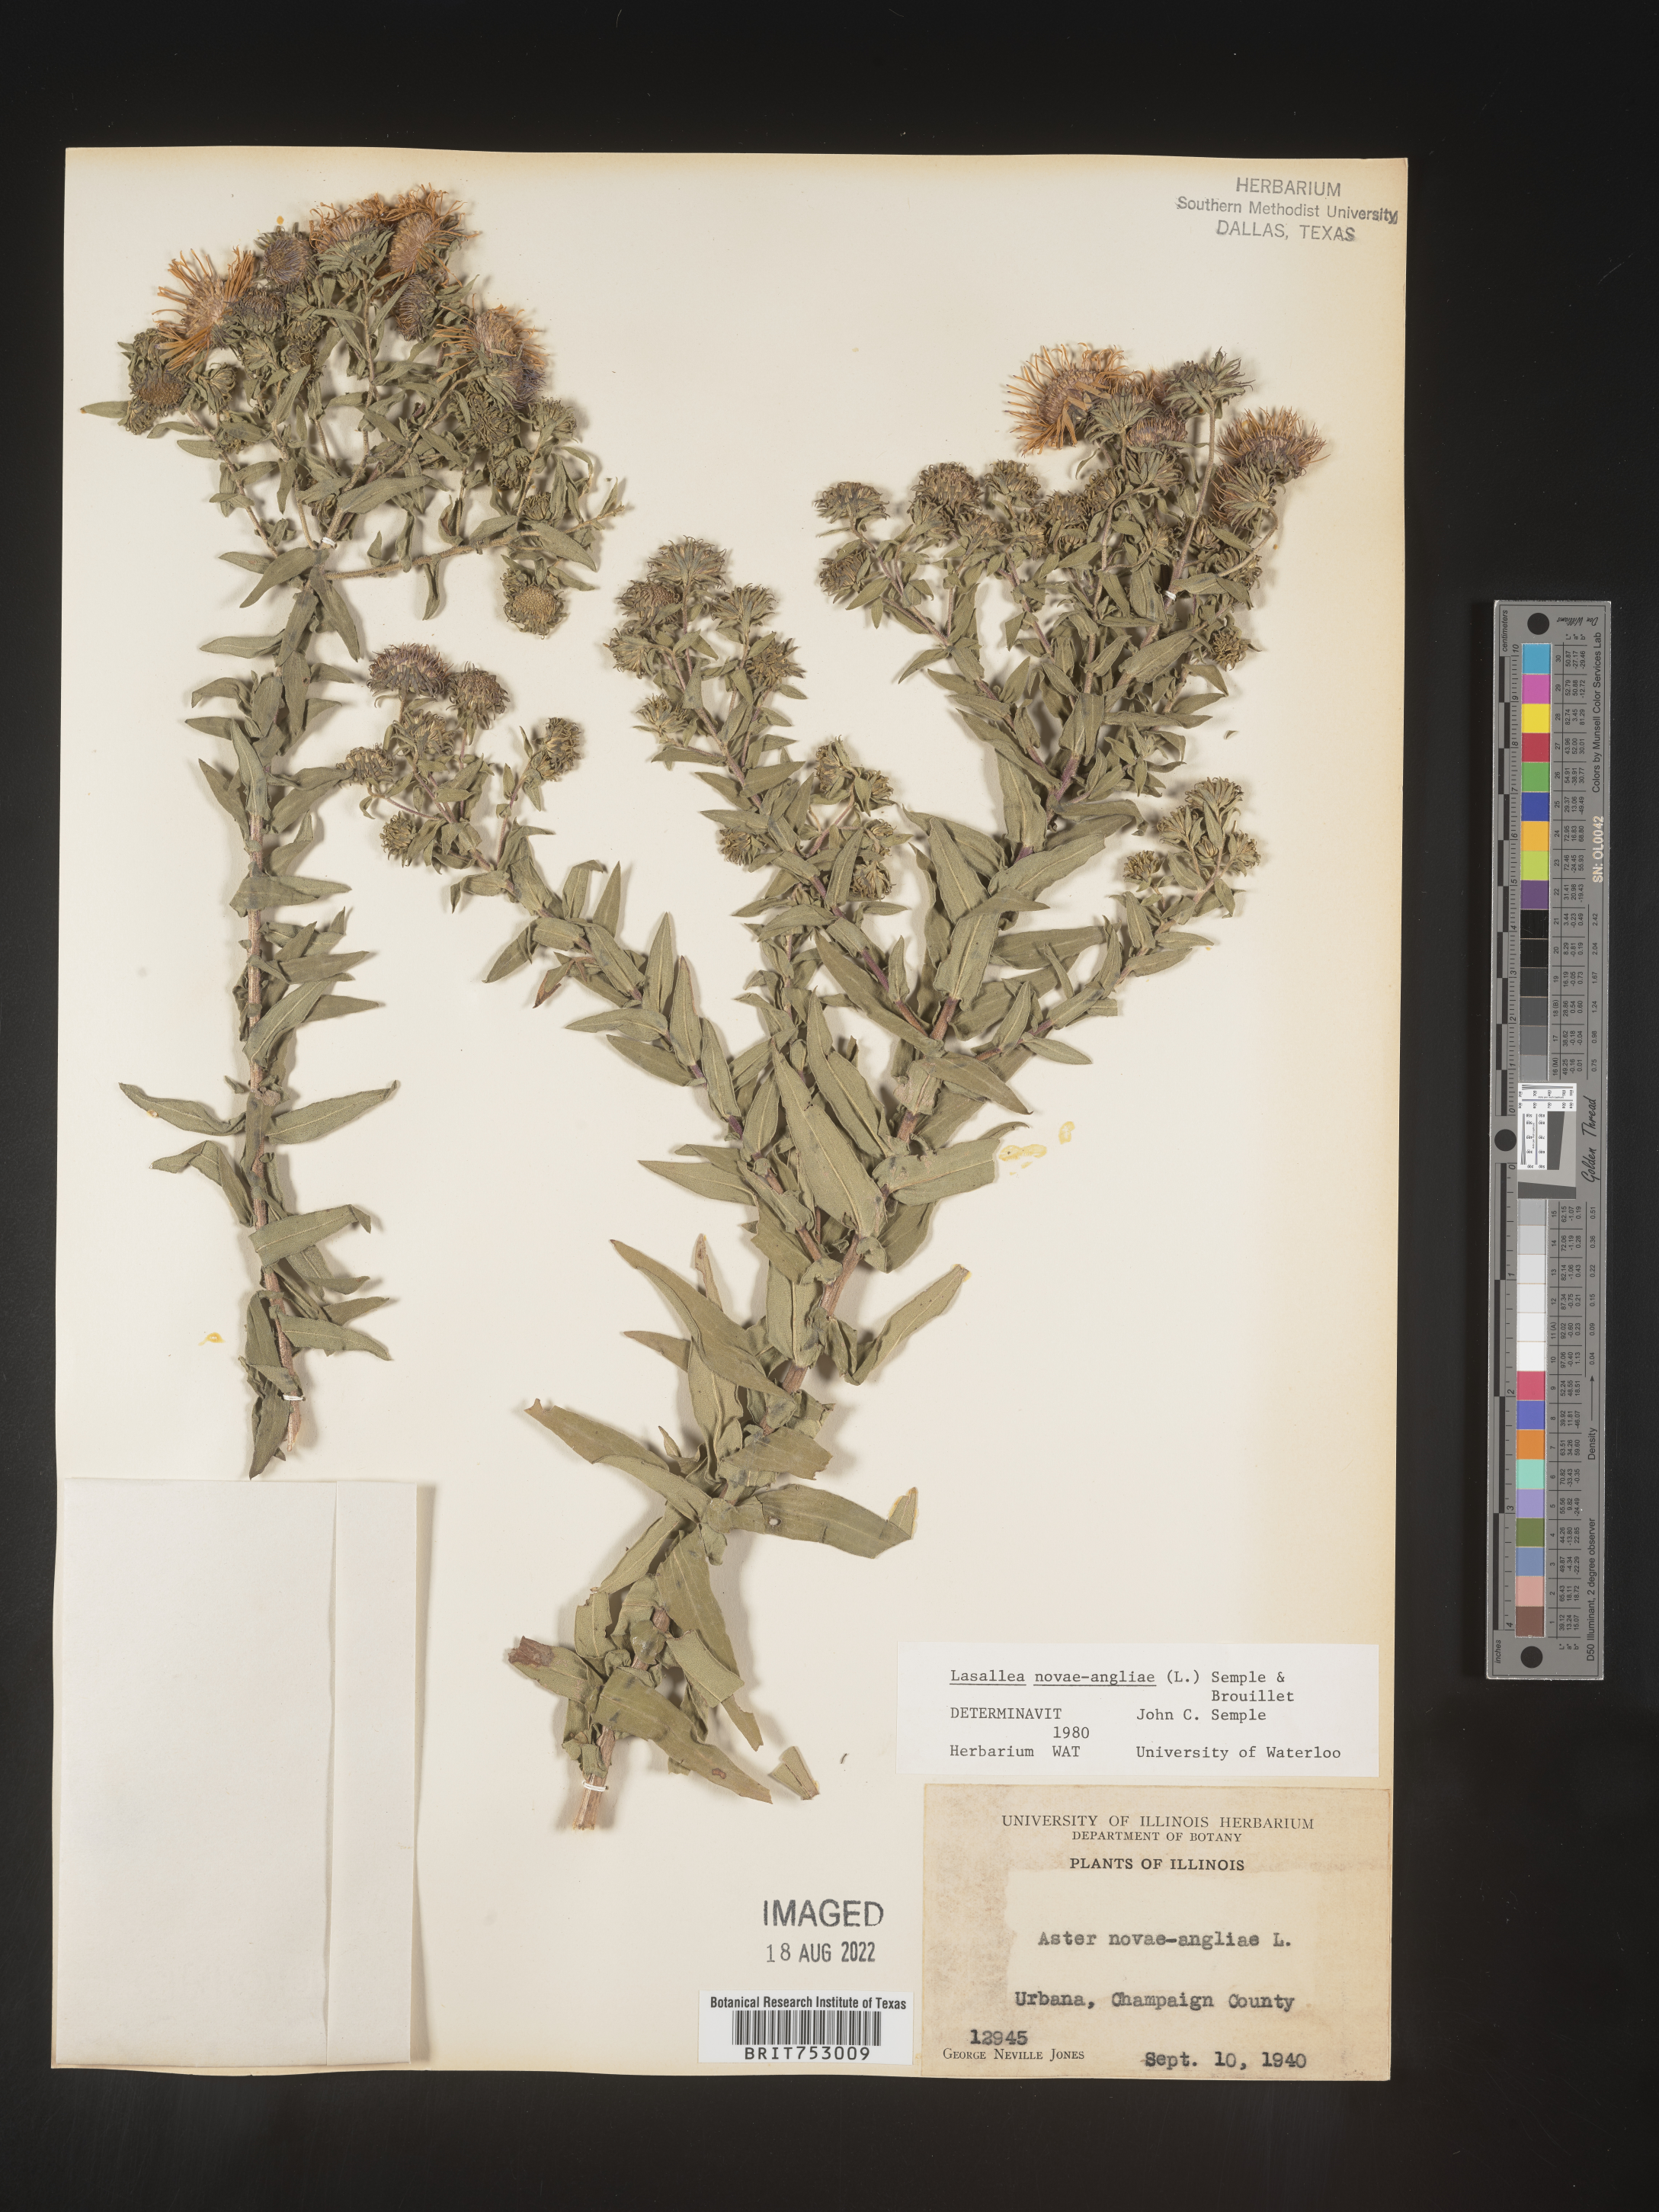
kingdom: Plantae
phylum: Tracheophyta
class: Magnoliopsida
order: Asterales
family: Asteraceae
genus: Symphyotrichum
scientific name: Symphyotrichum novae-angliae
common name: Michaelmas daisy
